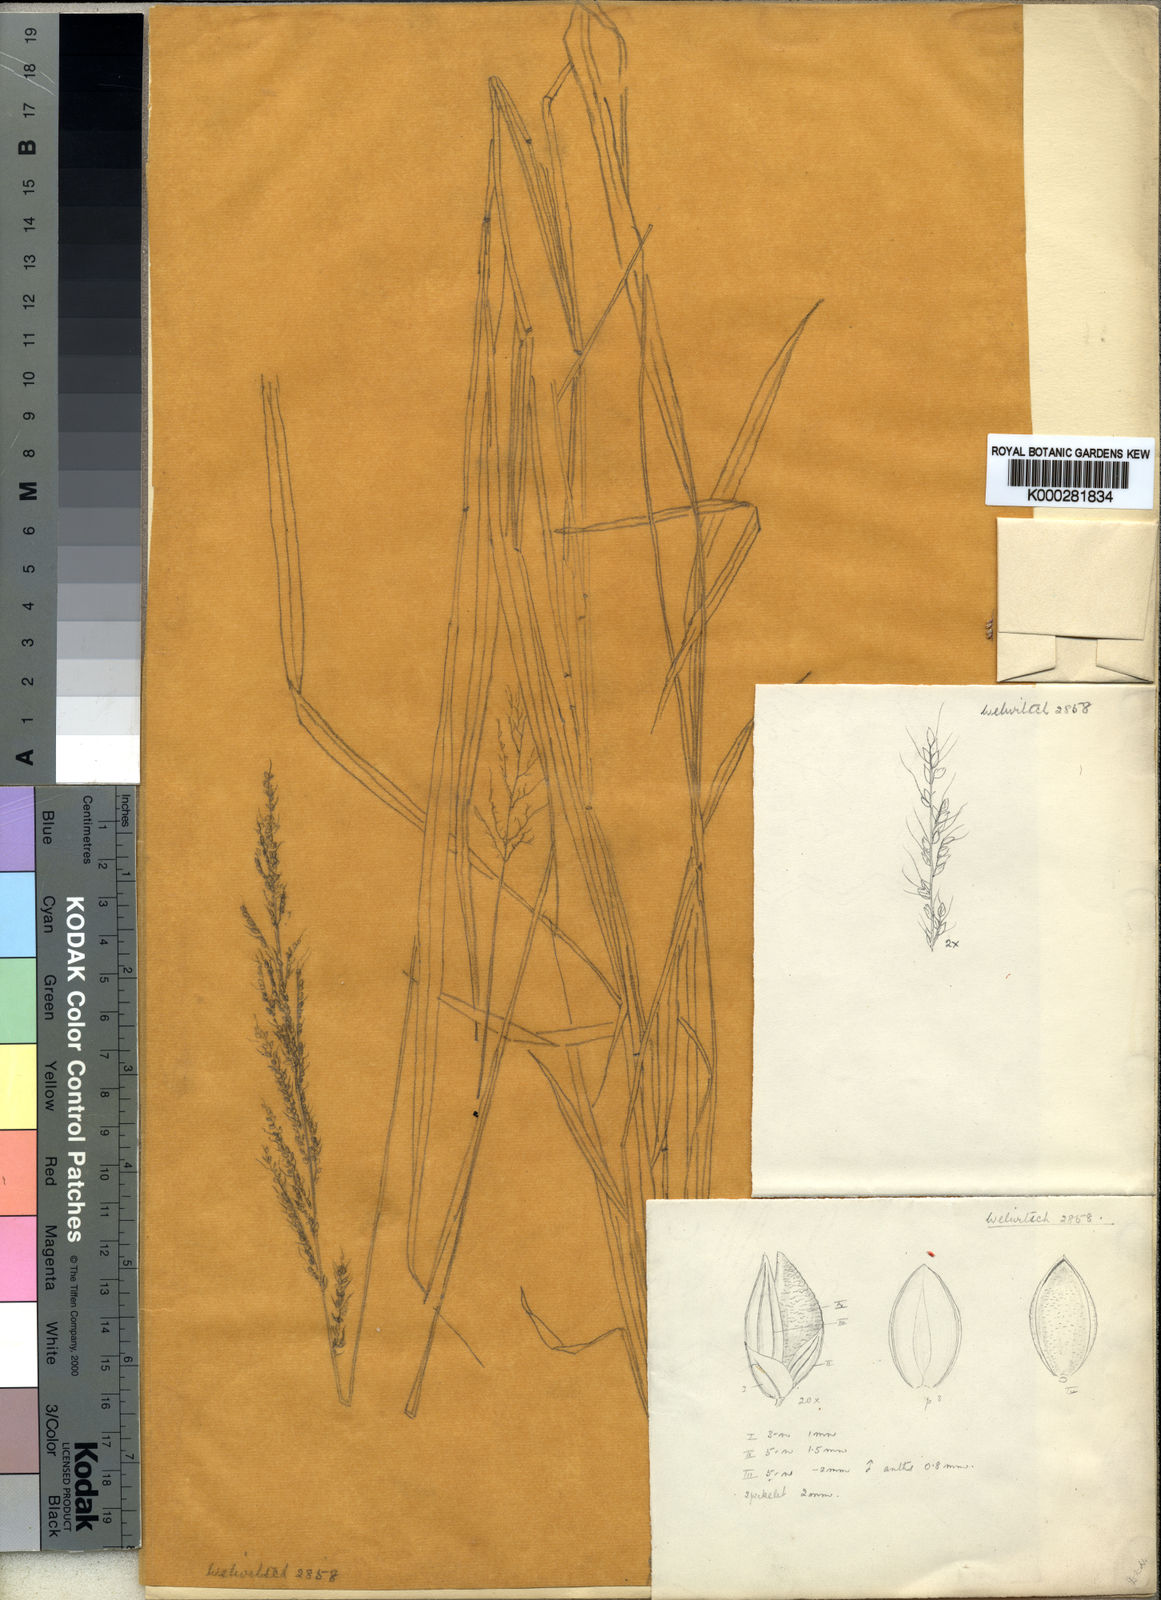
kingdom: Plantae
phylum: Tracheophyta
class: Liliopsida
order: Poales
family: Poaceae
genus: Setaria
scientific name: Setaria longiseta
